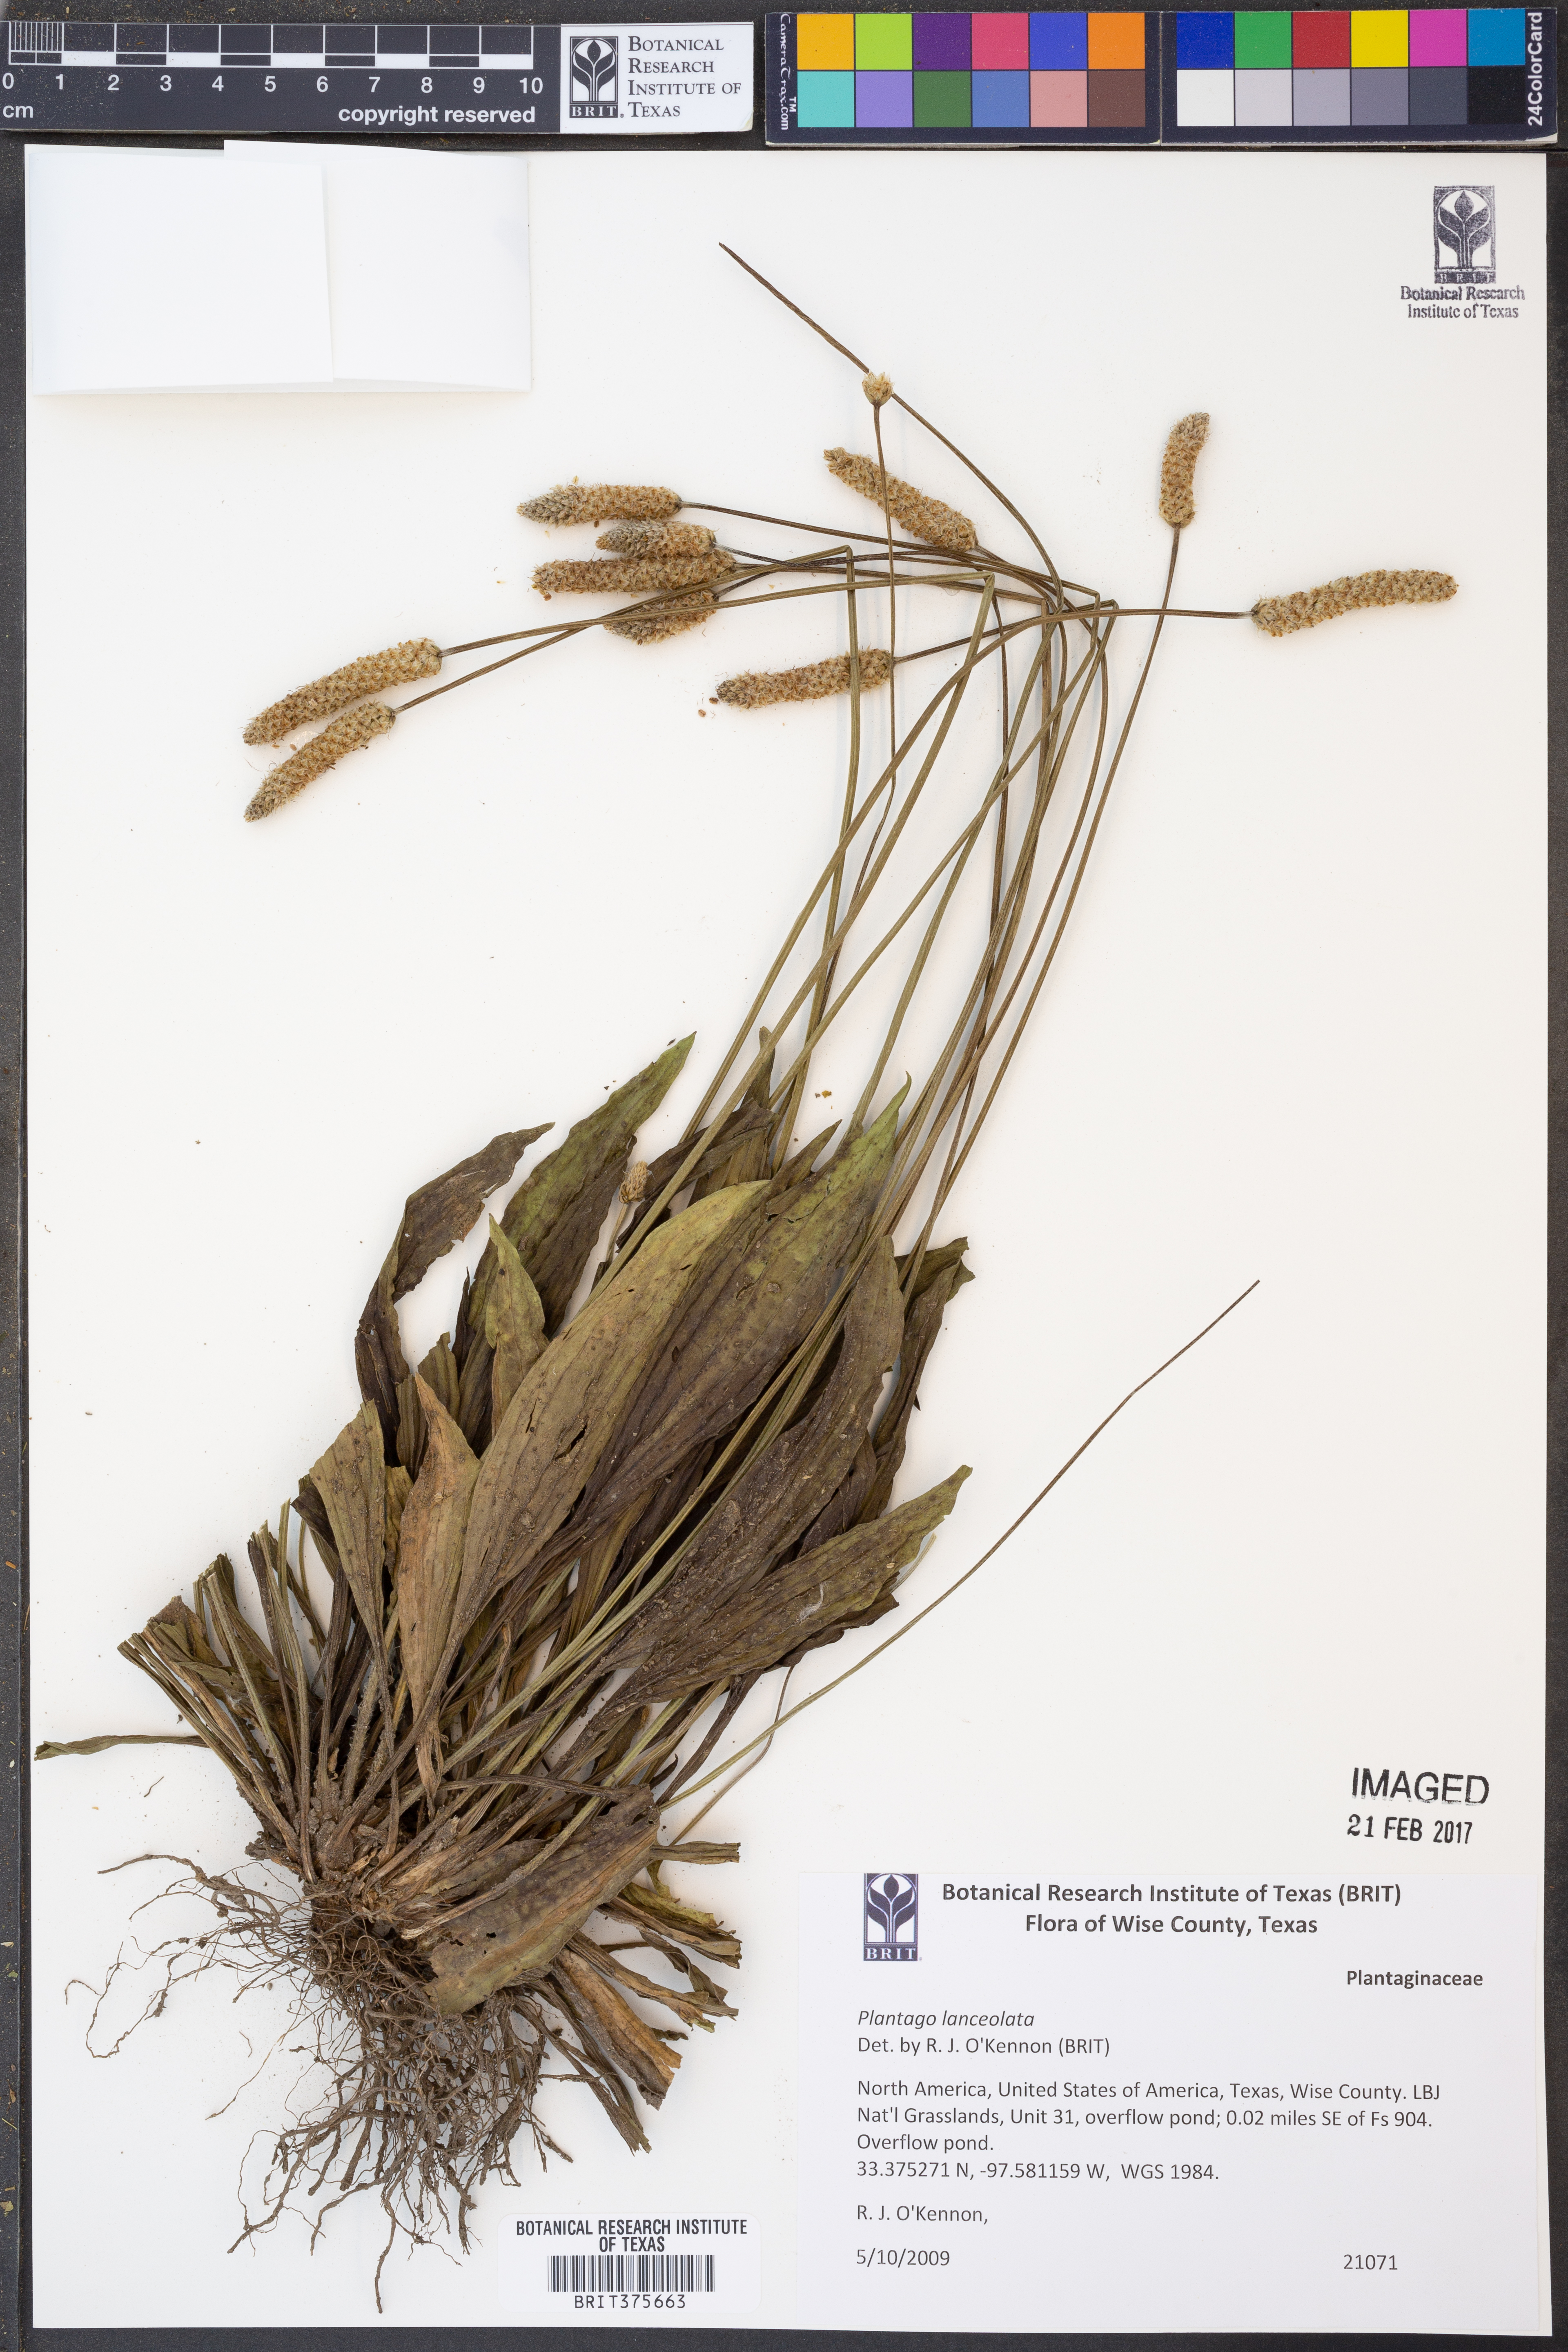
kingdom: Plantae
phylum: Tracheophyta
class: Magnoliopsida
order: Lamiales
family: Plantaginaceae
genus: Plantago
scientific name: Plantago lanceolata
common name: Ribwort plantain
